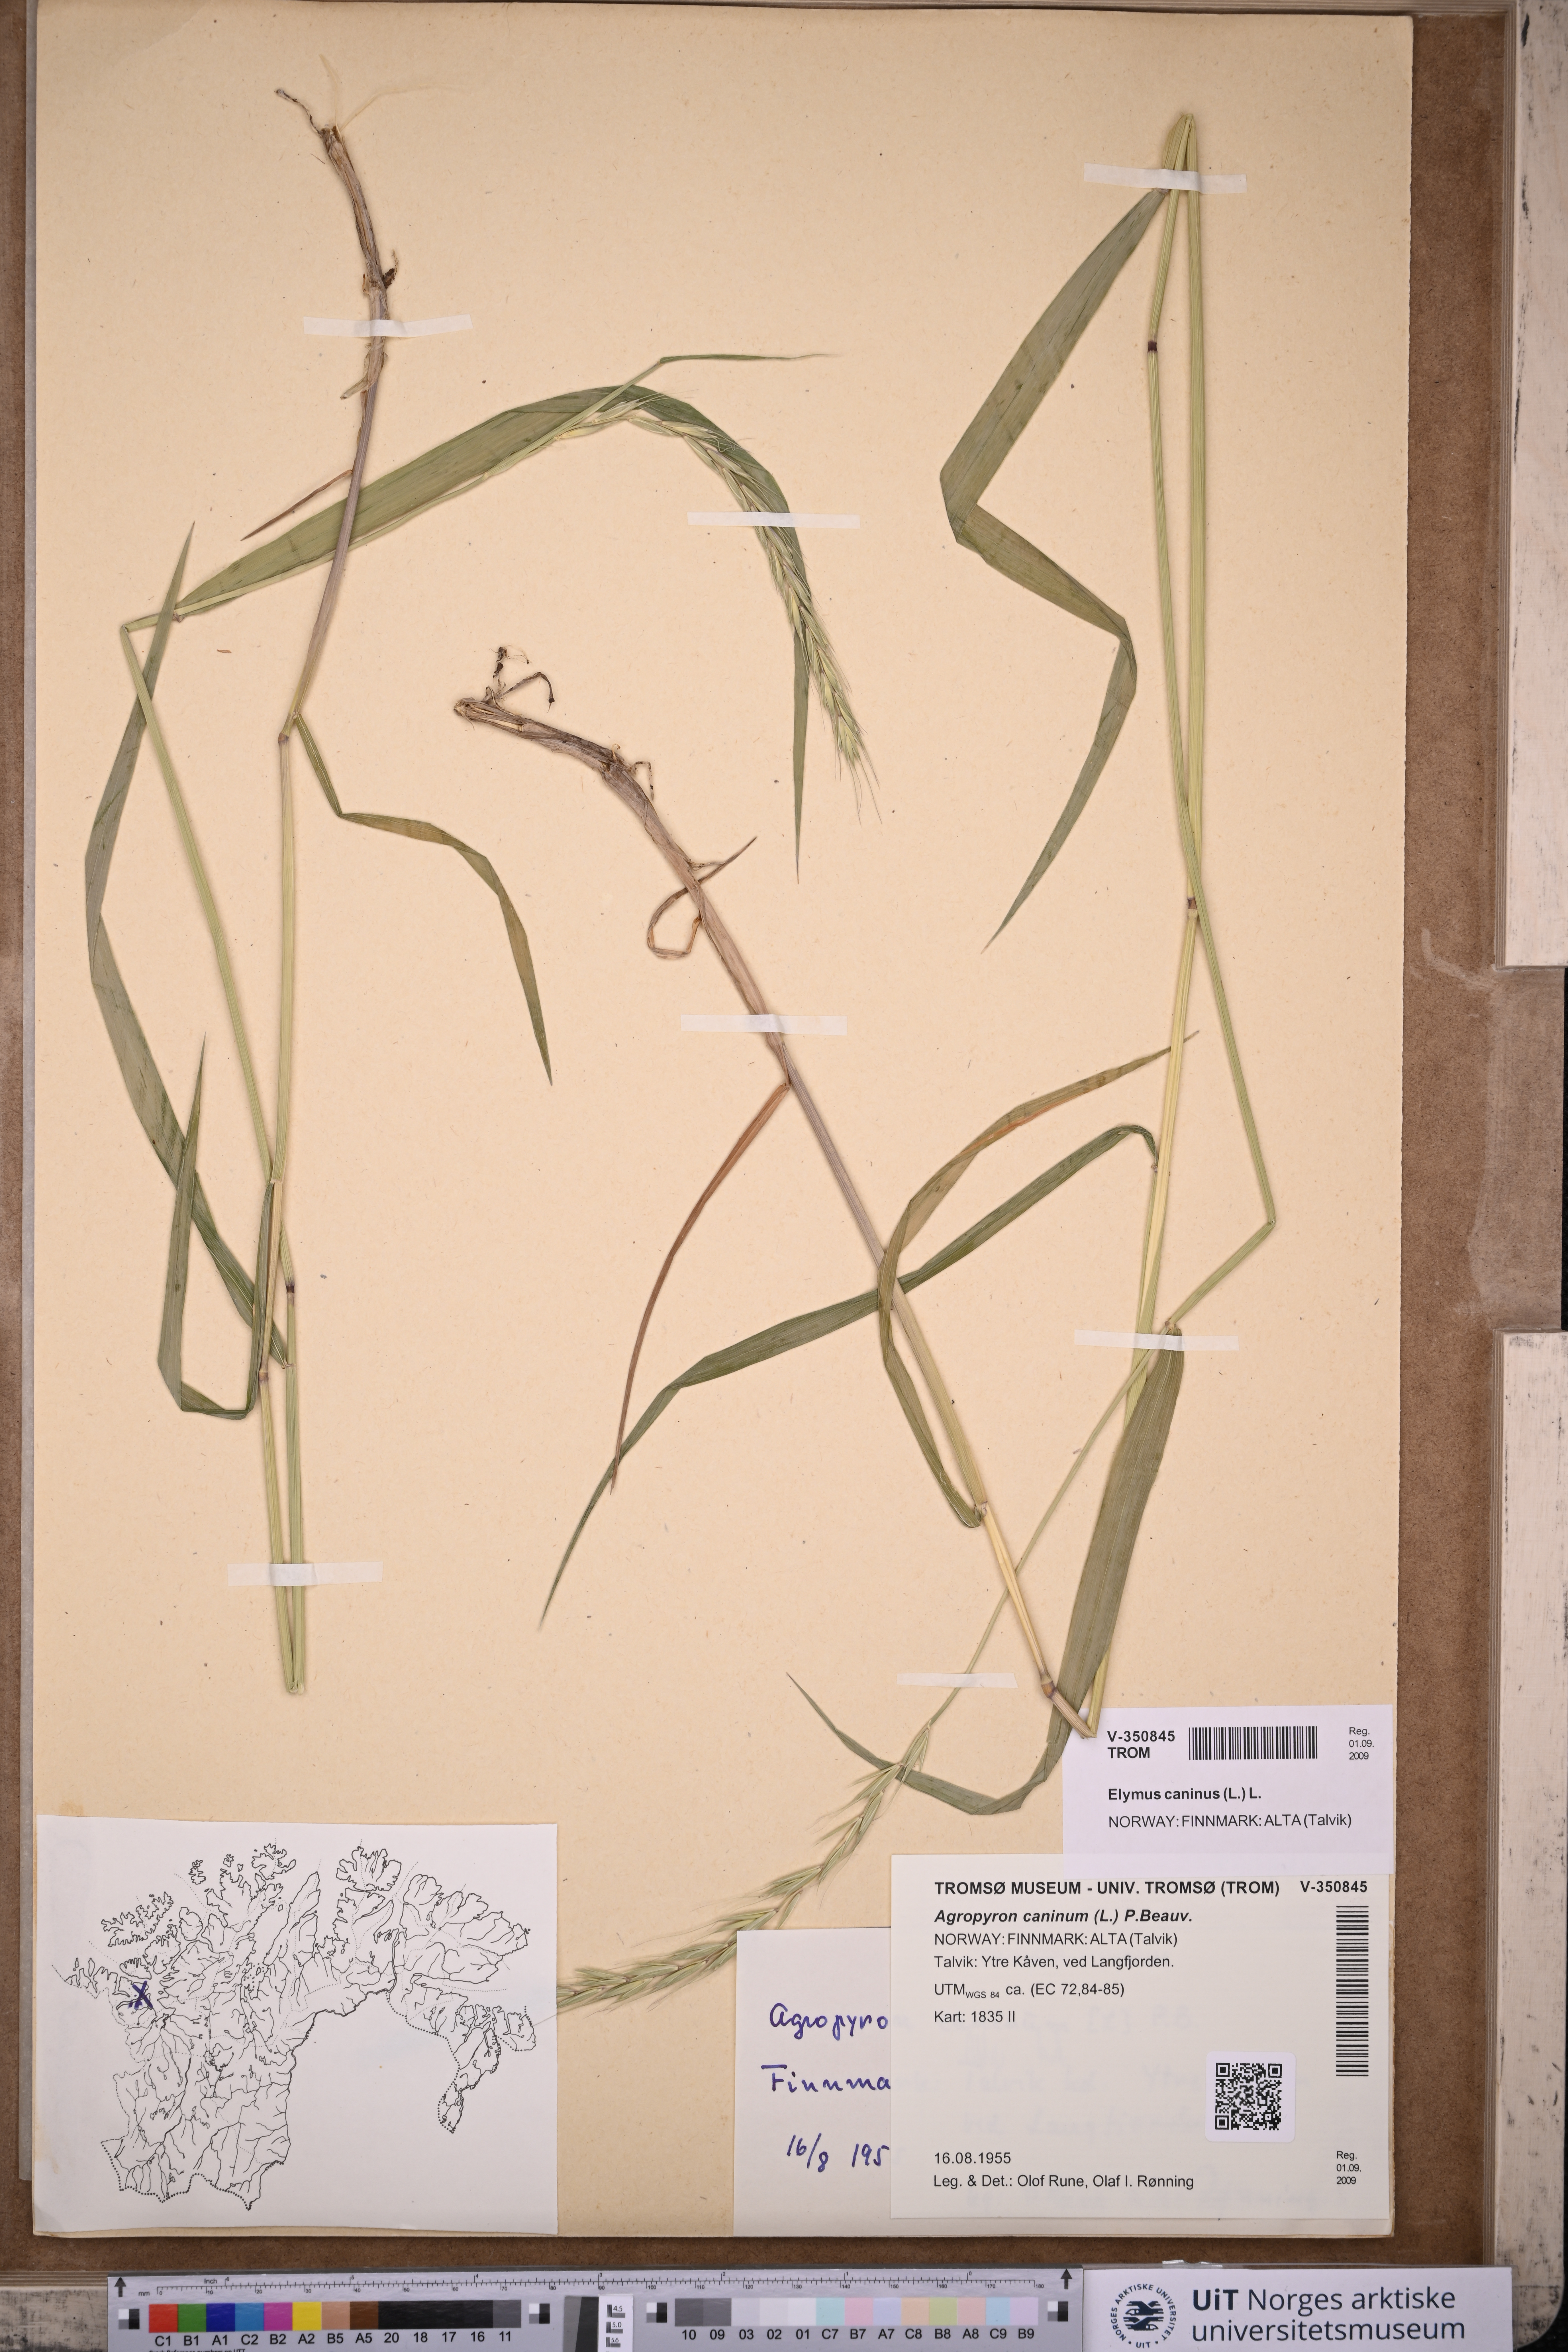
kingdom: Plantae
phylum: Tracheophyta
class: Liliopsida
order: Poales
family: Poaceae
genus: Elymus
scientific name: Elymus caninus
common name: Bearded couch
